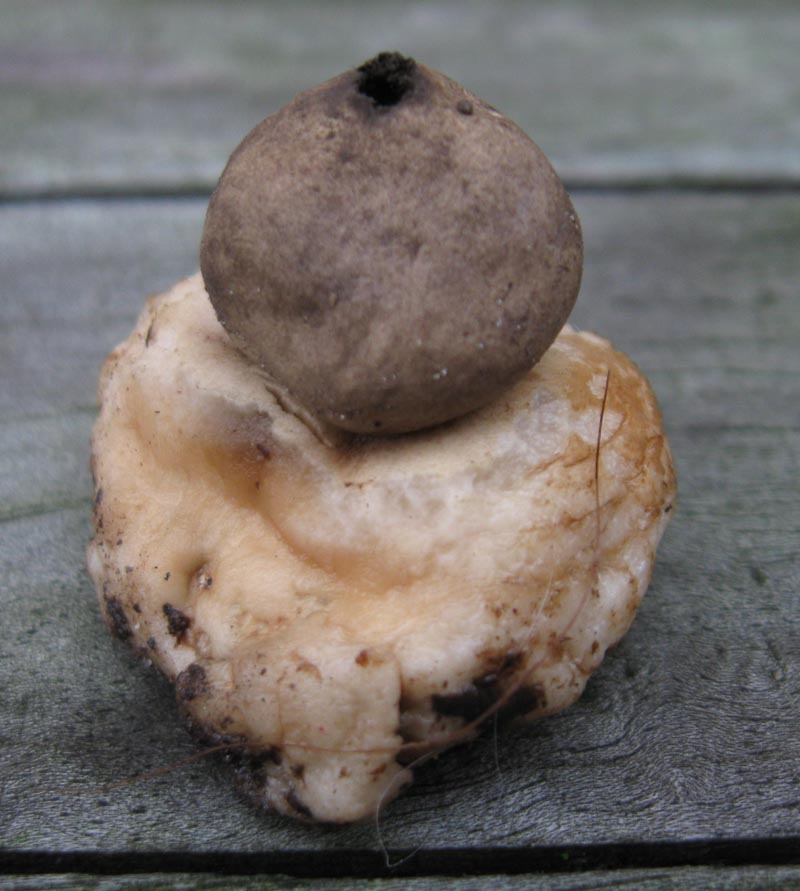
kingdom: Fungi
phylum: Basidiomycota
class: Agaricomycetes
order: Geastrales
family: Geastraceae
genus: Geastrum
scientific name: Geastrum fimbriatum
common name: frynset stjernebold
